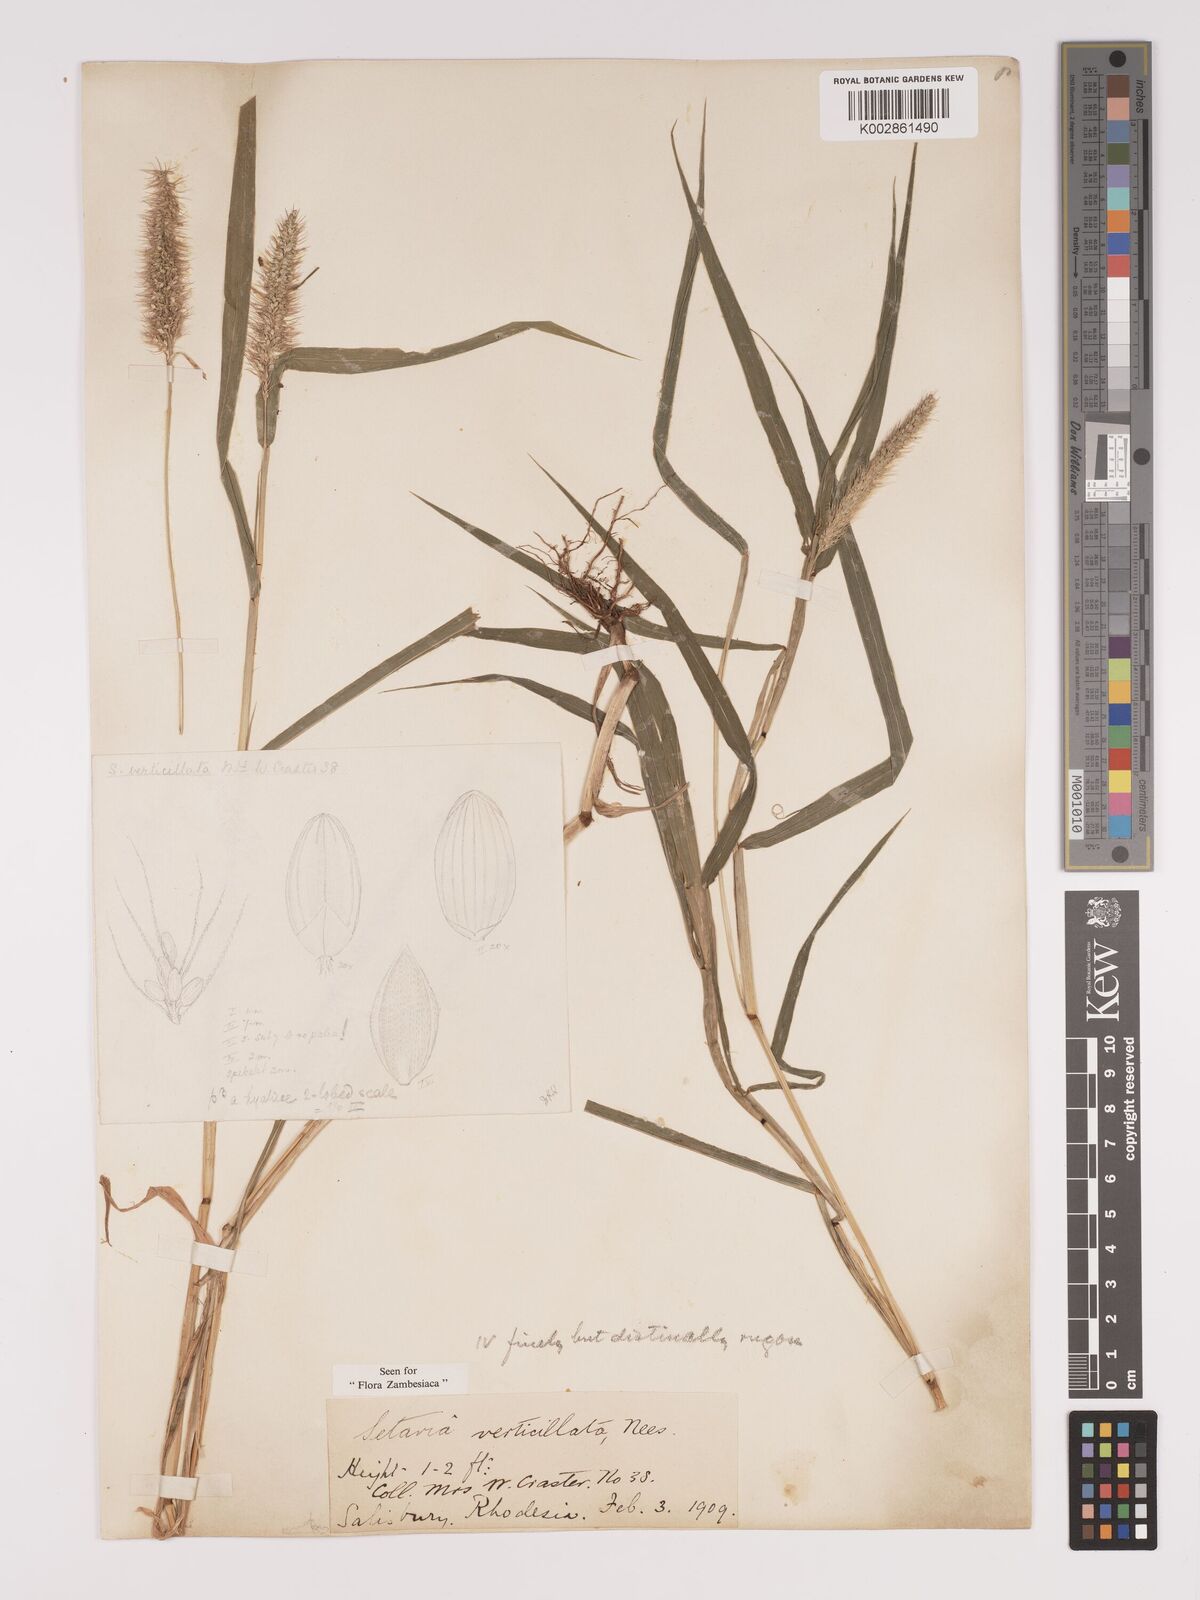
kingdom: Plantae
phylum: Tracheophyta
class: Liliopsida
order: Poales
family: Poaceae
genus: Setaria
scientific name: Setaria verticillata
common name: Hooked bristlegrass
